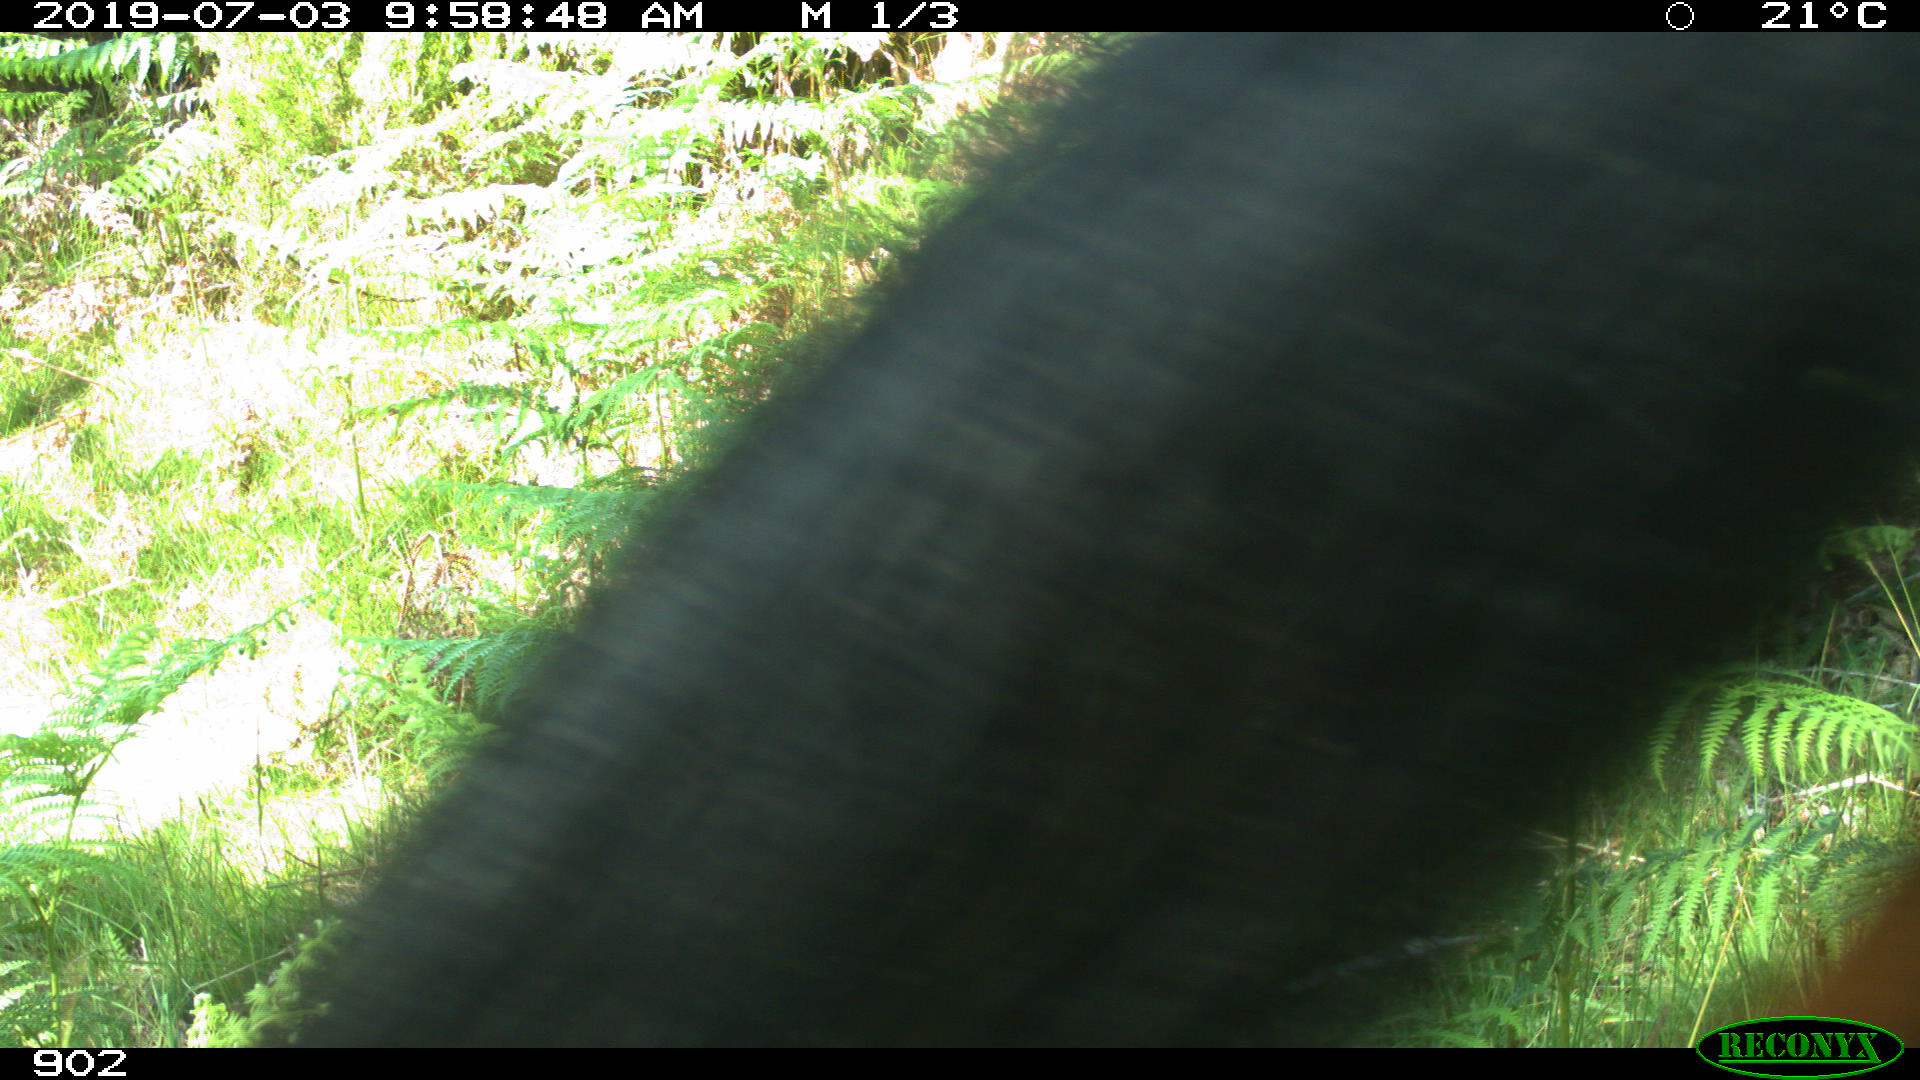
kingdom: Animalia
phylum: Chordata
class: Mammalia
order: Perissodactyla
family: Equidae
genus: Equus
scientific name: Equus caballus
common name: Horse
